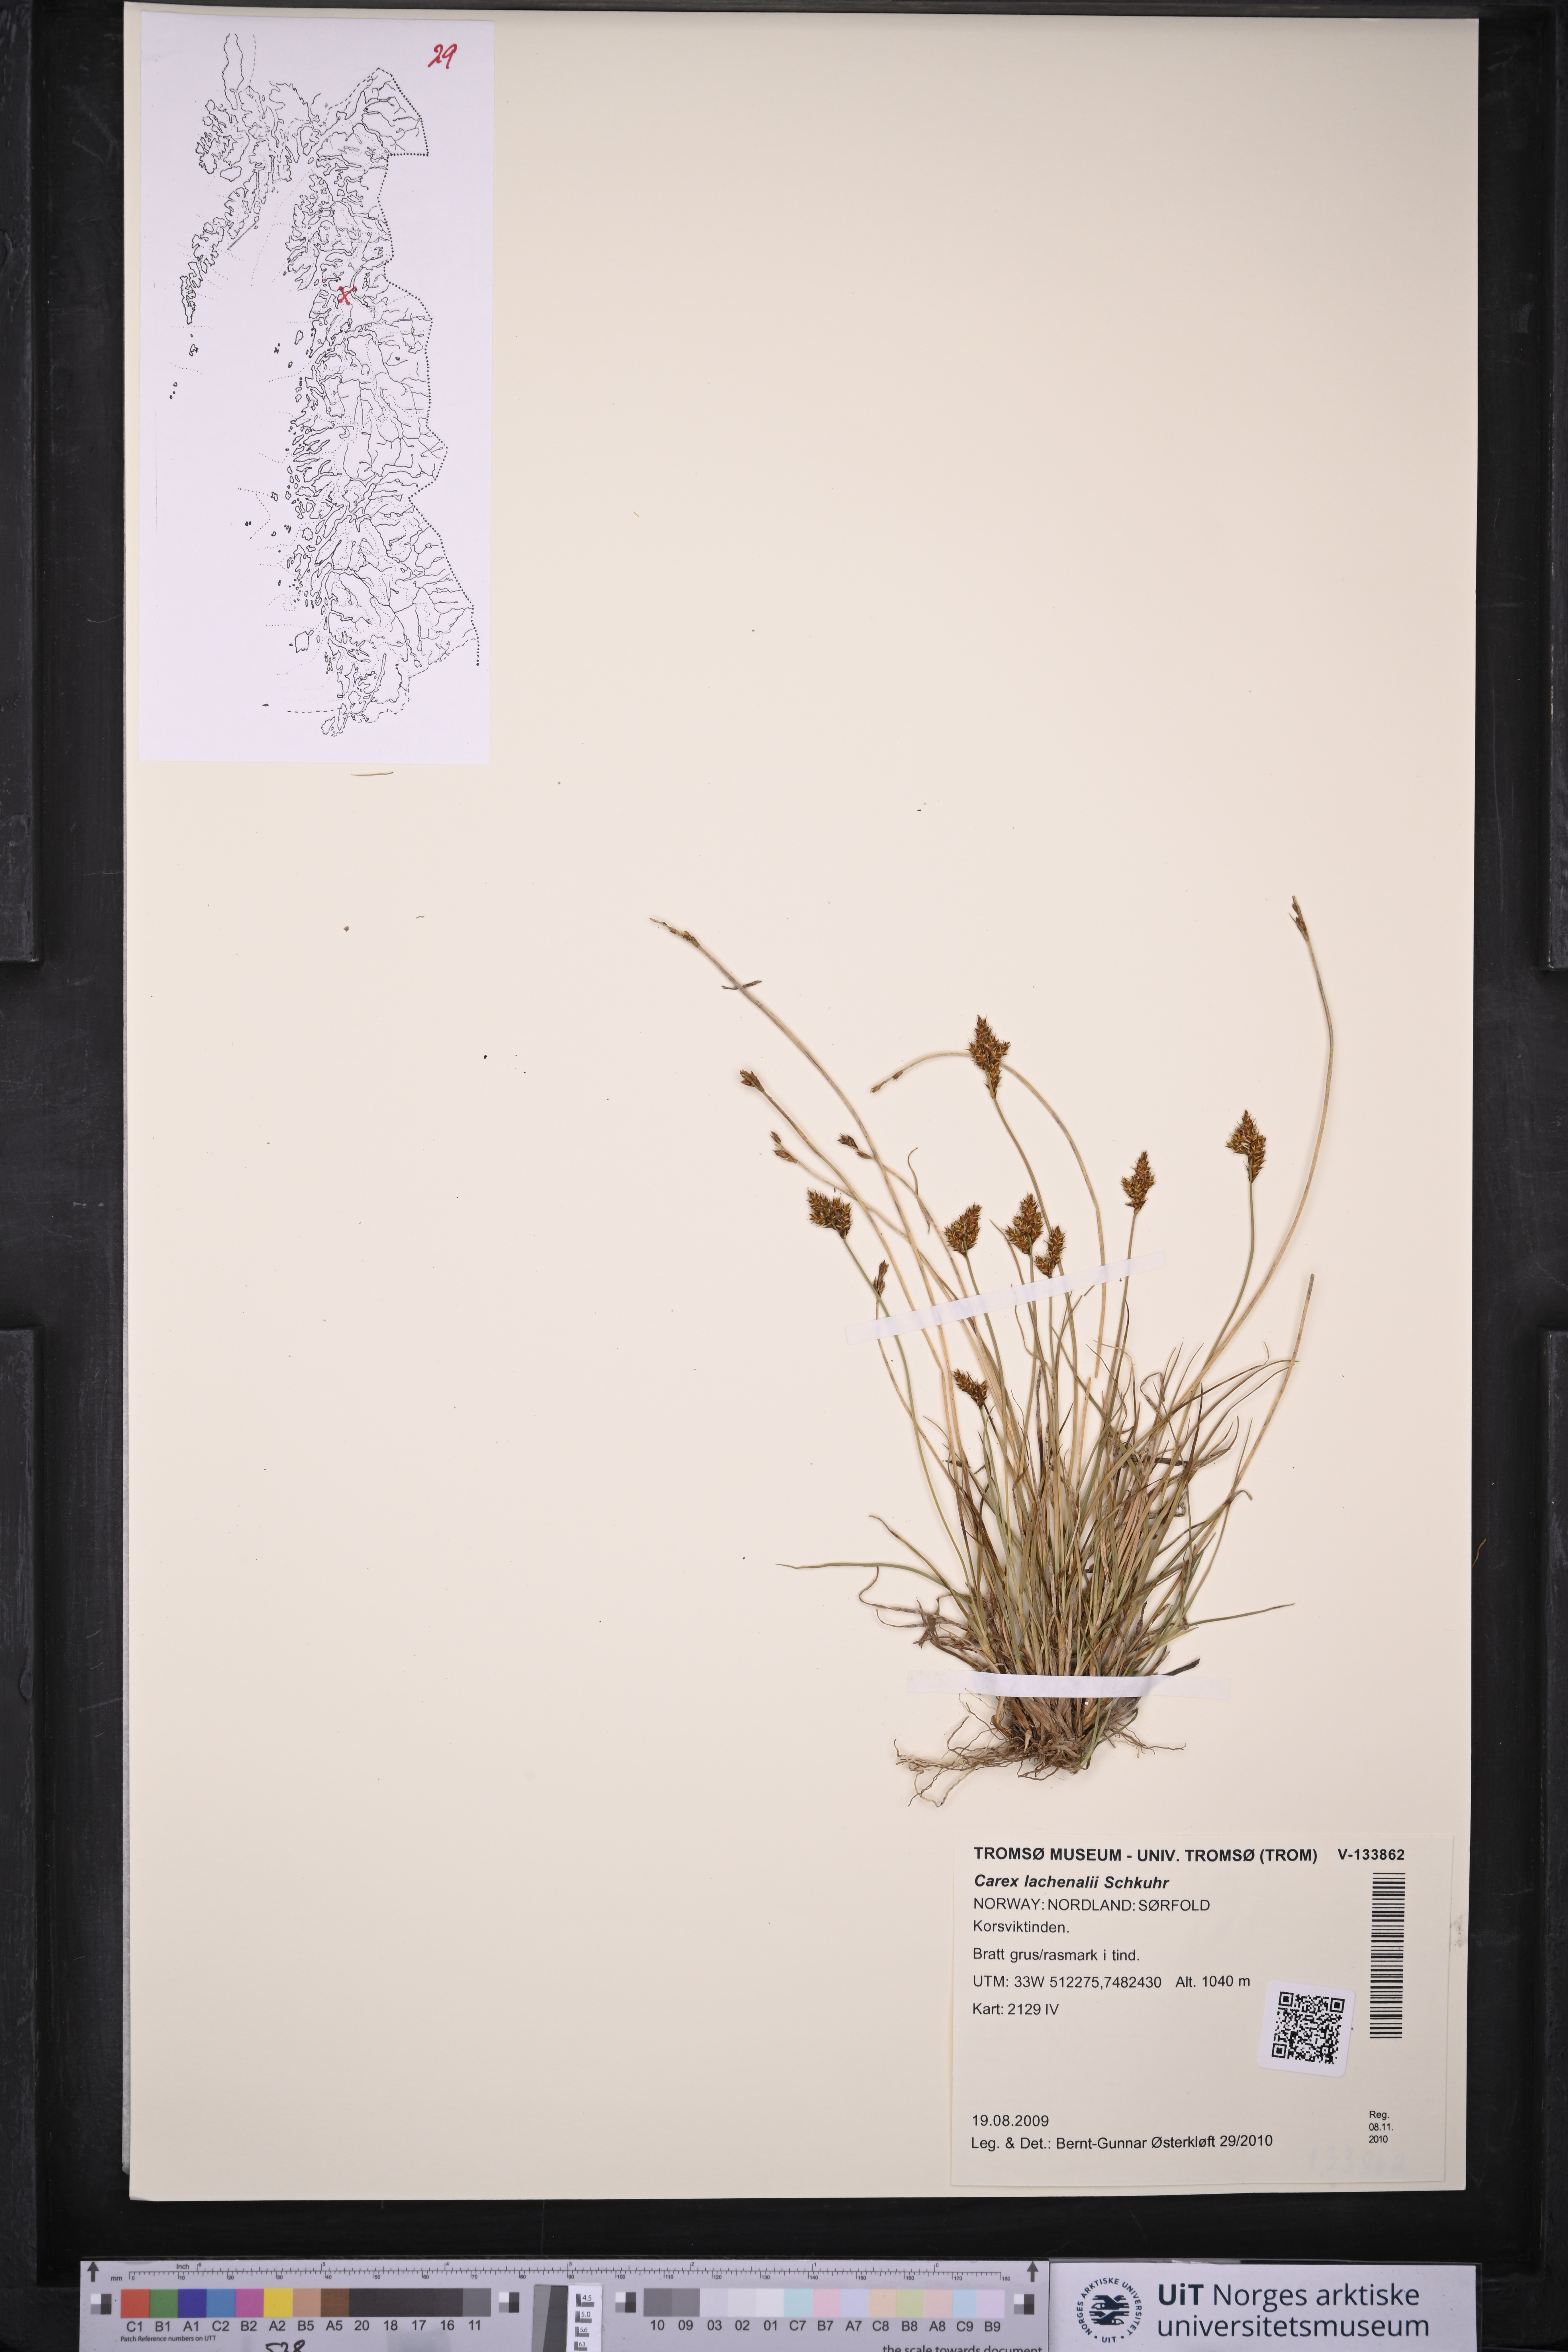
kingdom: Plantae
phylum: Tracheophyta
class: Liliopsida
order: Poales
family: Cyperaceae
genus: Carex
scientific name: Carex lachenalii
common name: Hare's-foot sedge
